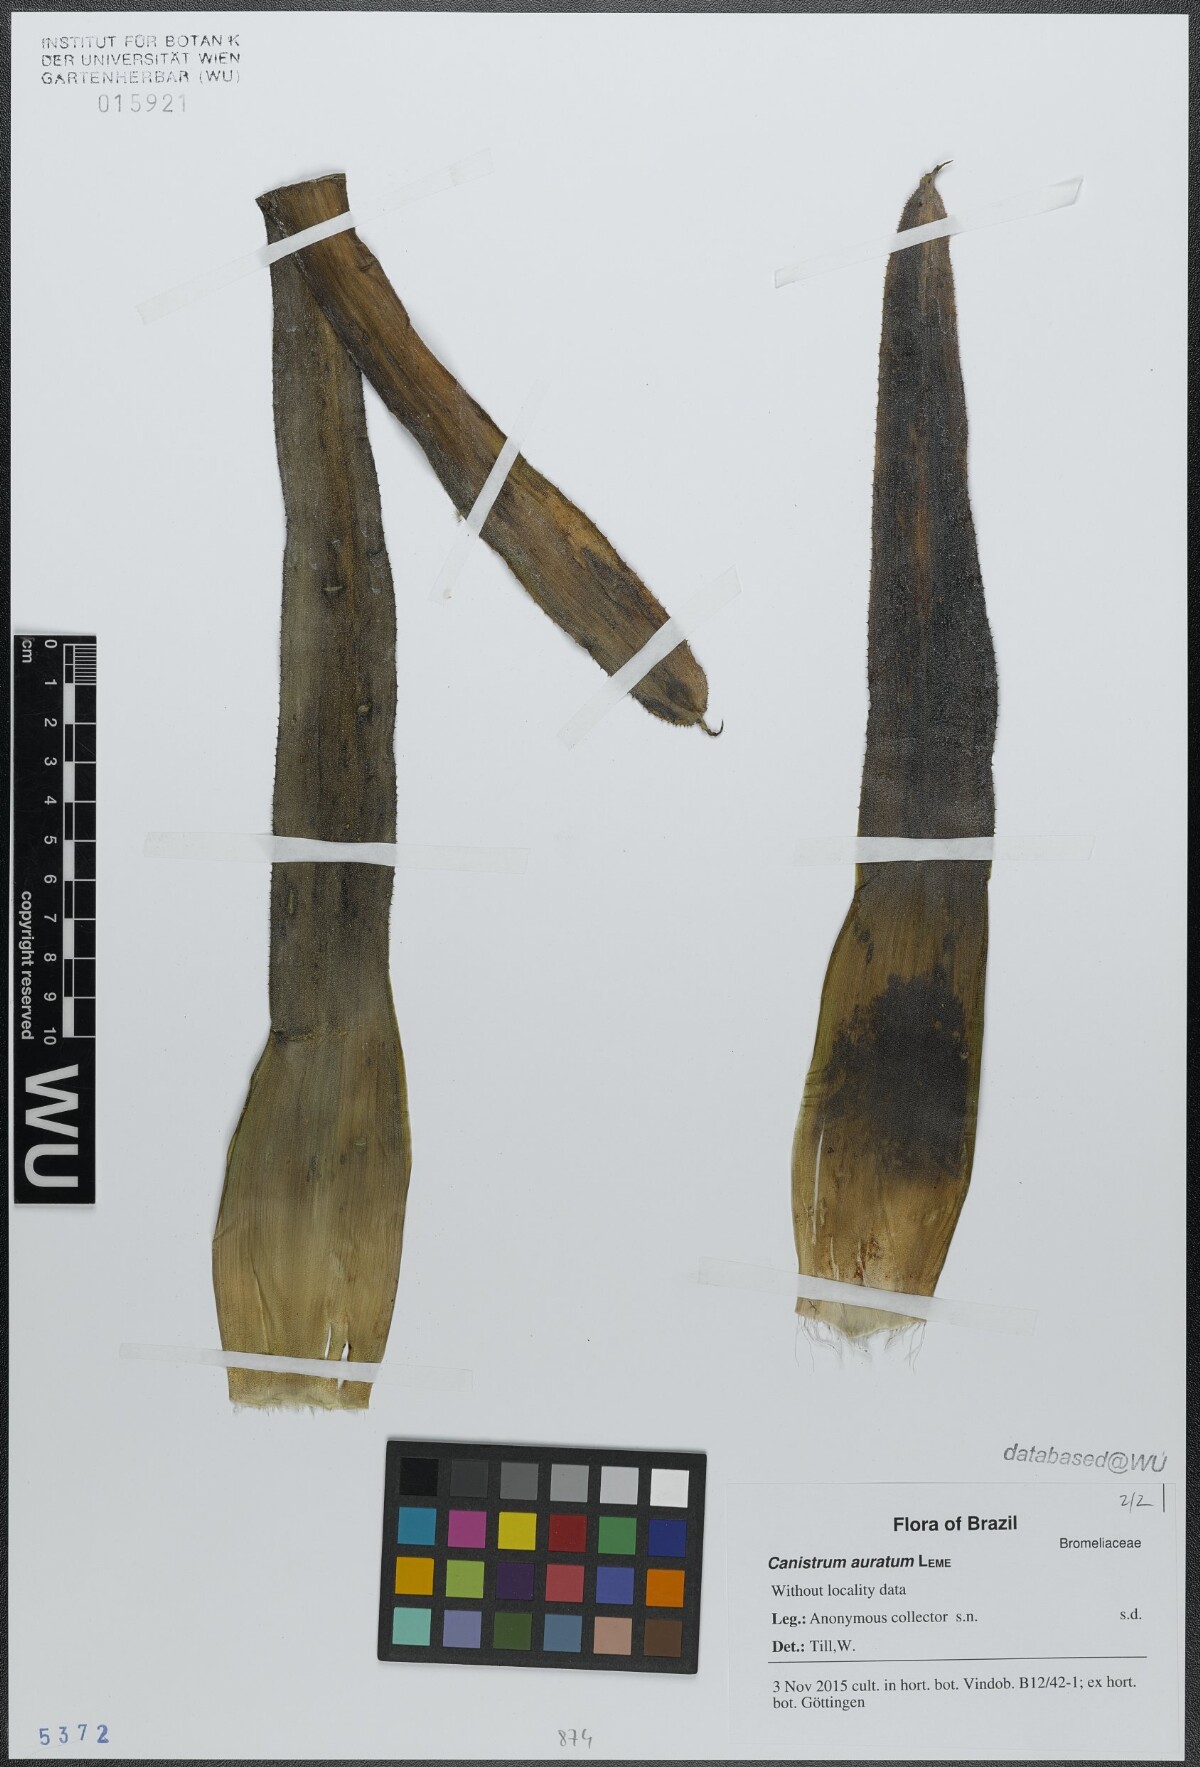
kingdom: Plantae
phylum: Tracheophyta
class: Liliopsida
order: Poales
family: Bromeliaceae
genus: Canistrum
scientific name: Canistrum auratum
